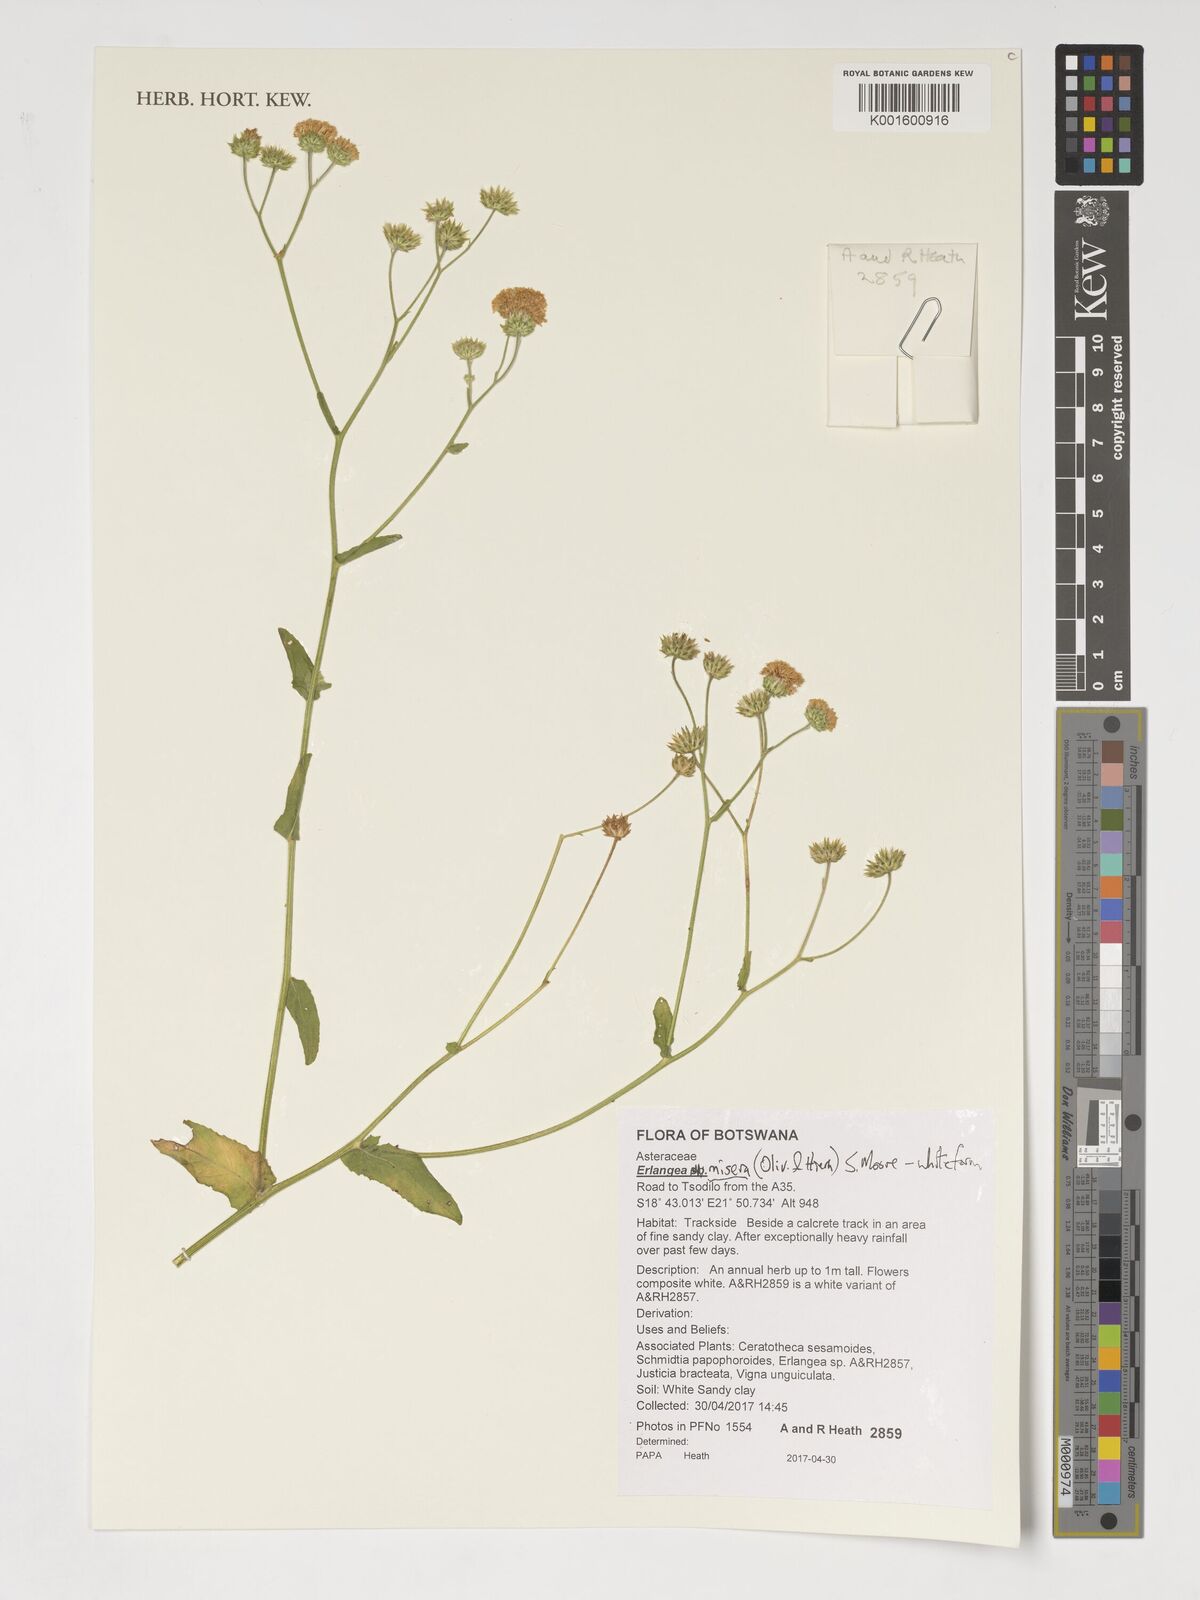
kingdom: Plantae
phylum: Tracheophyta
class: Magnoliopsida
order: Asterales
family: Asteraceae
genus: Erlangea
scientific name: Erlangea misera
